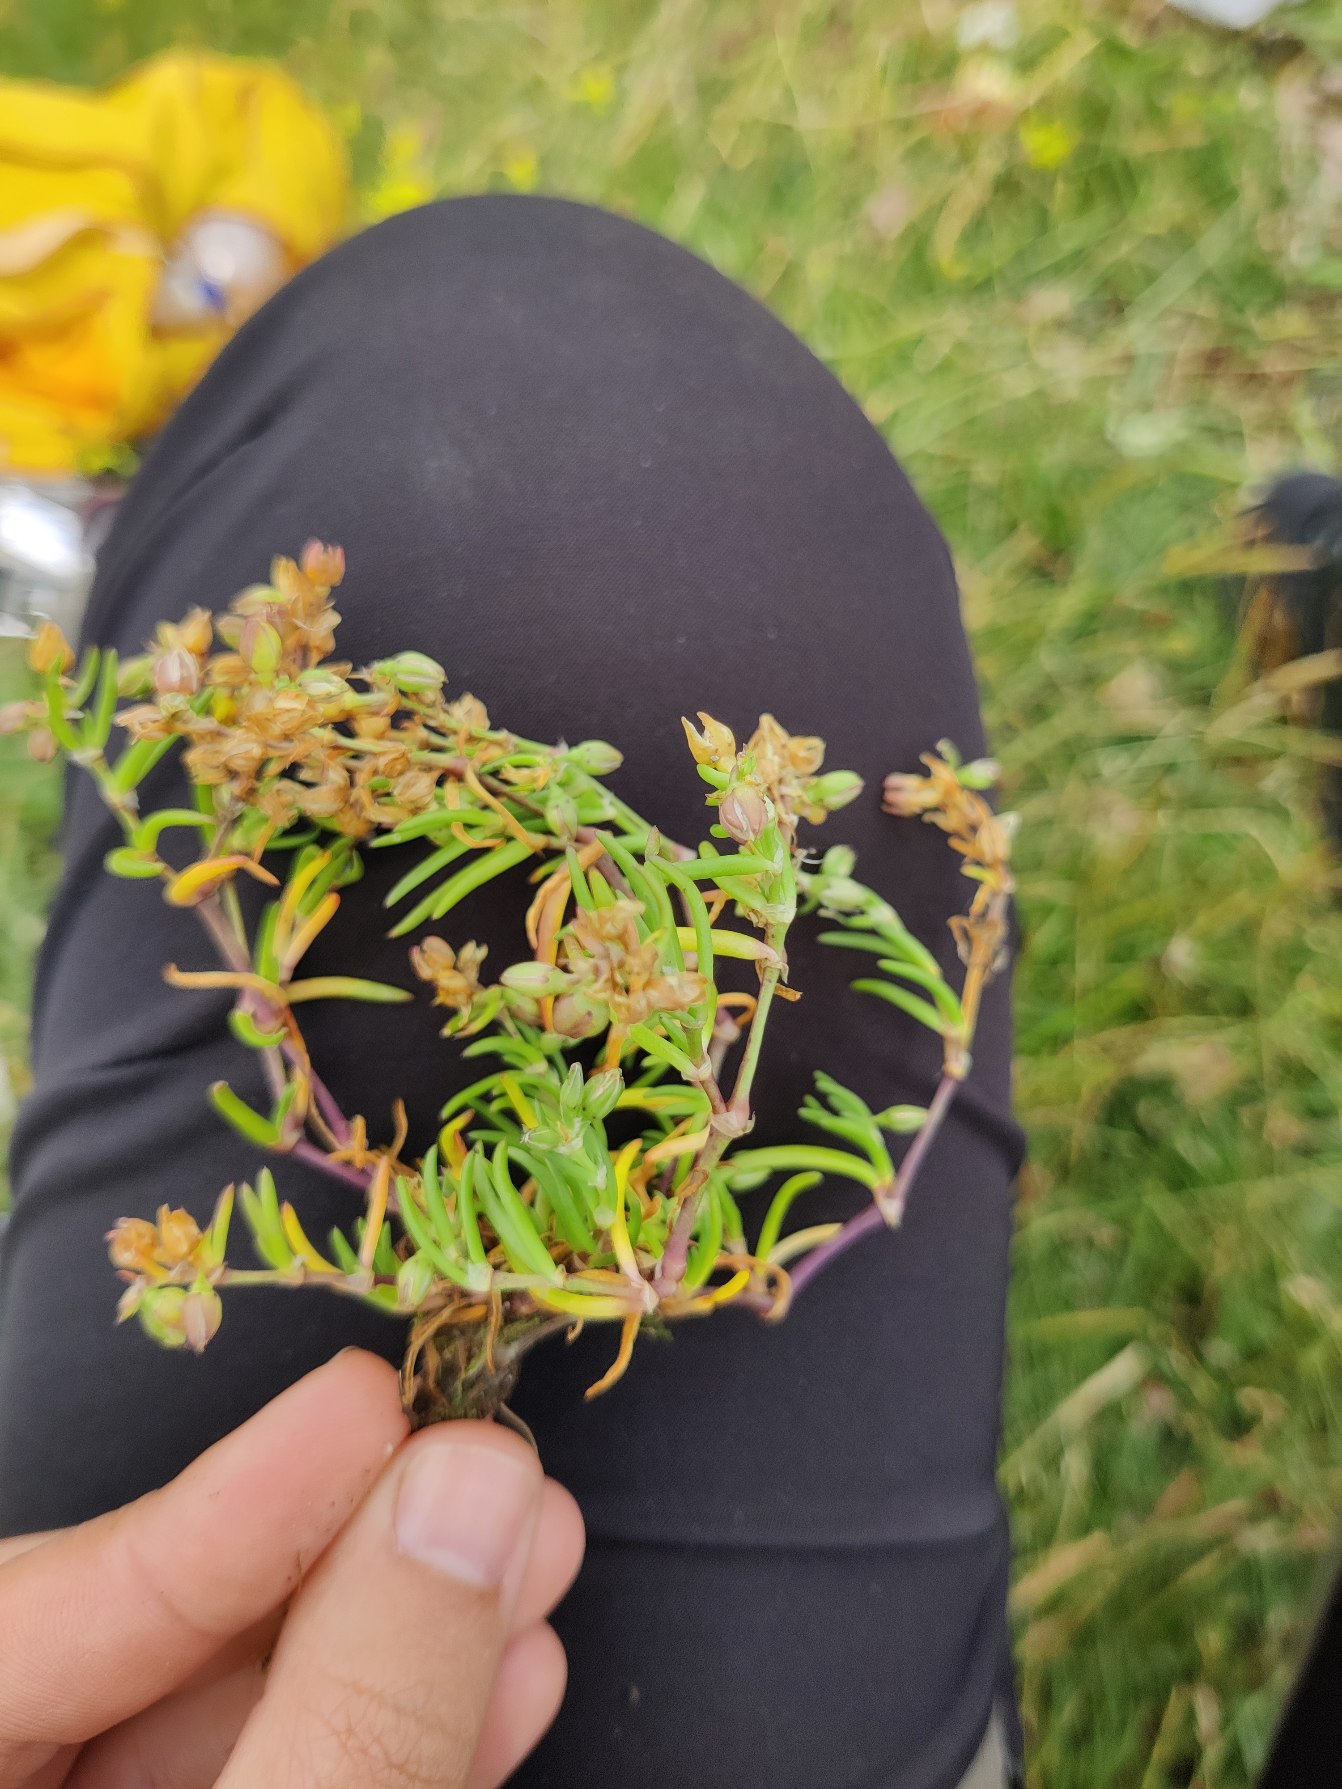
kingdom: Plantae
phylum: Tracheophyta
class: Magnoliopsida
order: Caryophyllales
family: Caryophyllaceae
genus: Spergularia
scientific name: Spergularia marina
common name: Kødet hindeknæ
